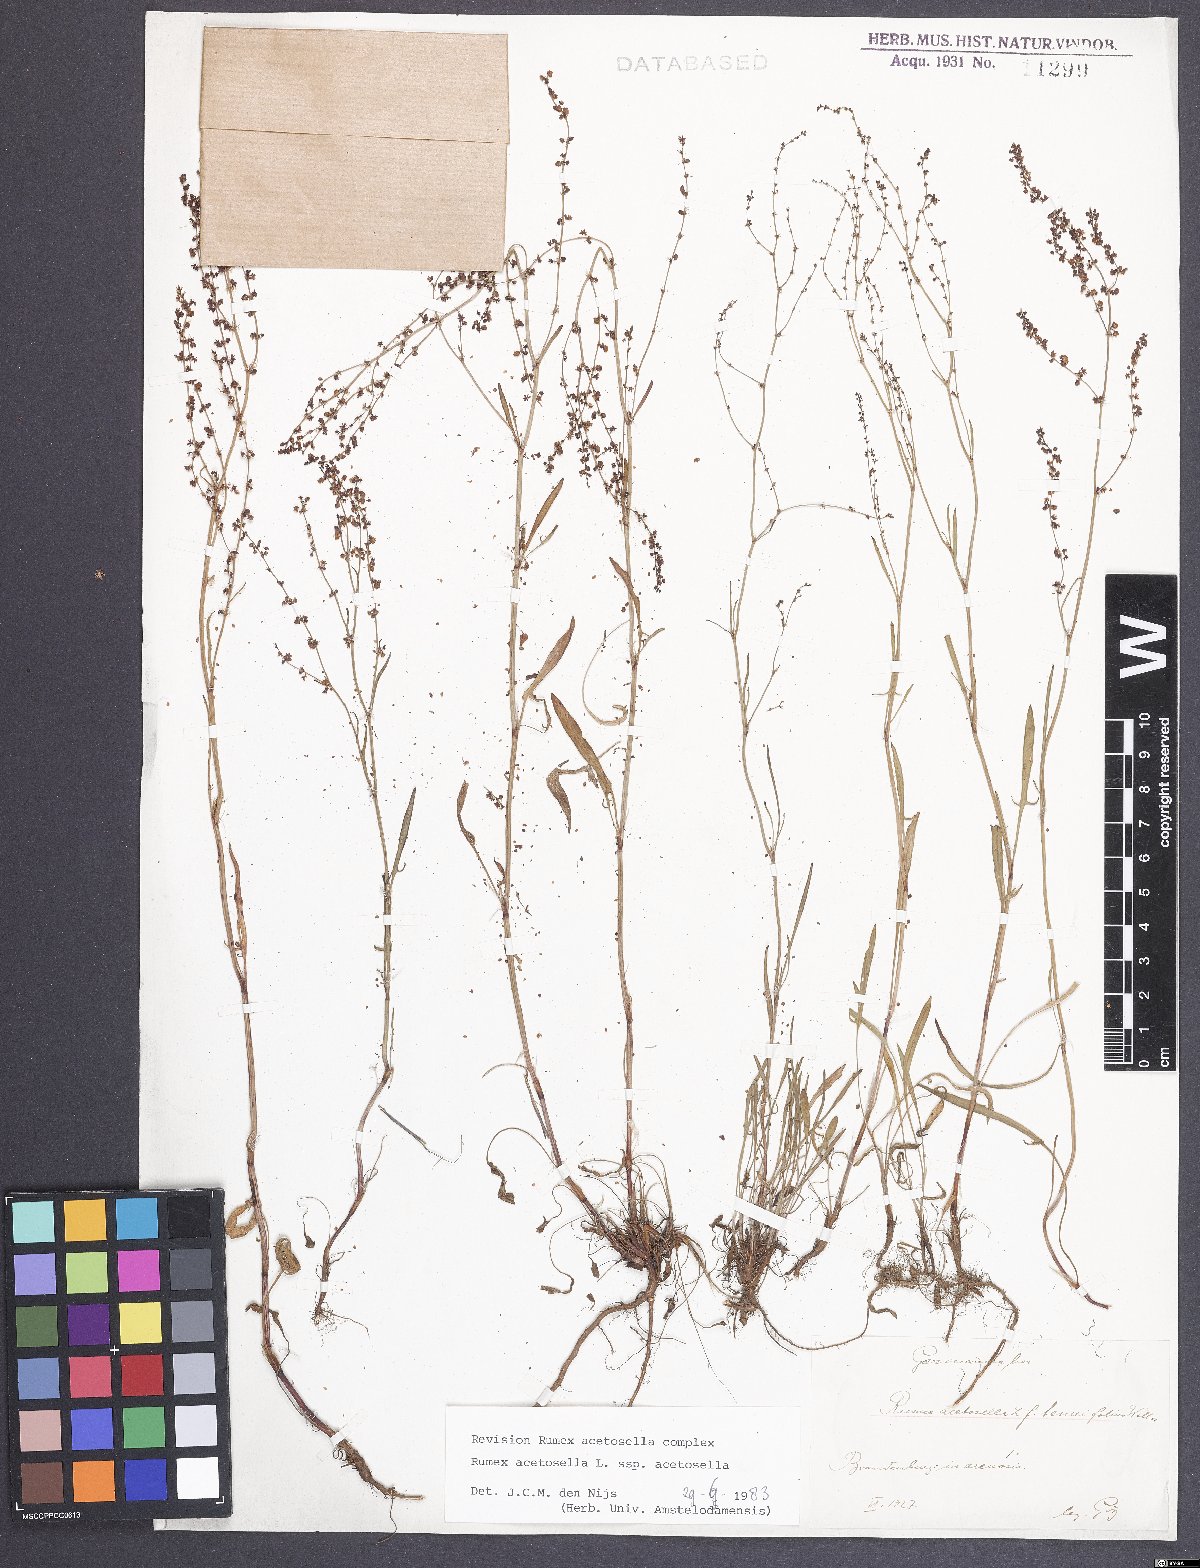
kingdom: Plantae
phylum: Tracheophyta
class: Magnoliopsida
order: Caryophyllales
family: Polygonaceae
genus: Rumex
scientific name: Rumex acetosella
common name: Common sheep sorrel
